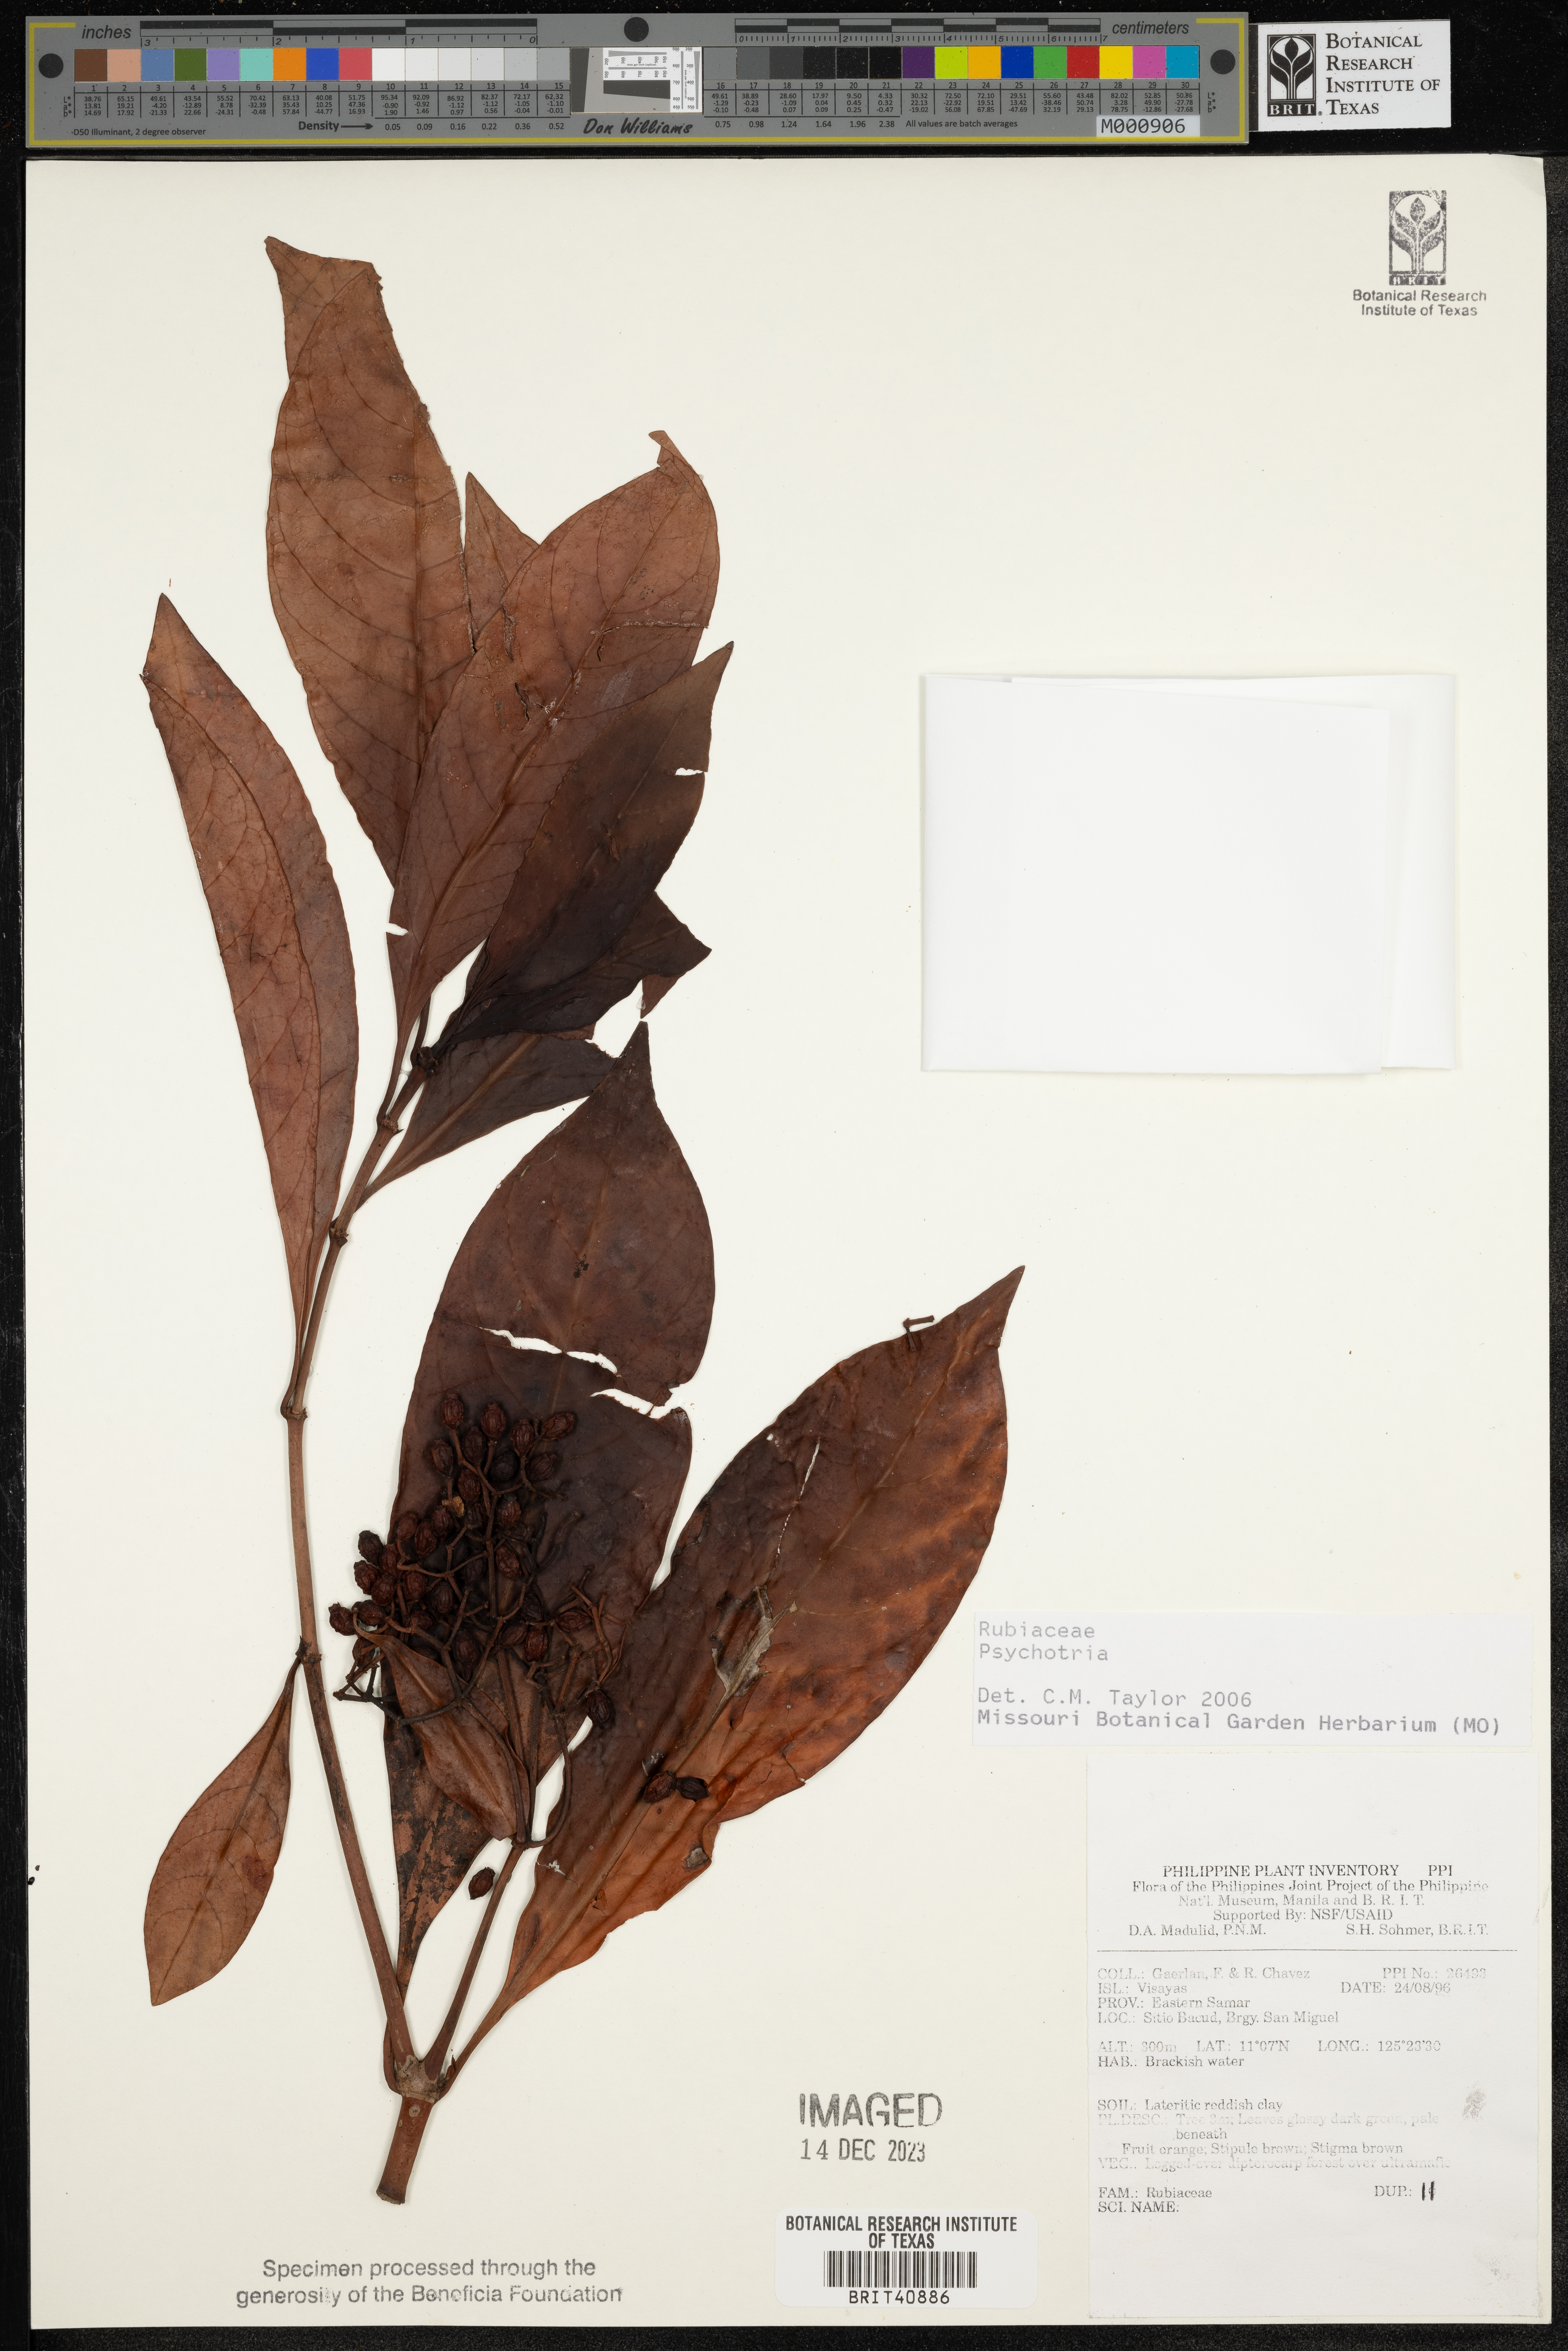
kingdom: Plantae
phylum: Tracheophyta
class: Magnoliopsida
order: Gentianales
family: Rubiaceae
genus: Psychotria
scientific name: Psychotria
